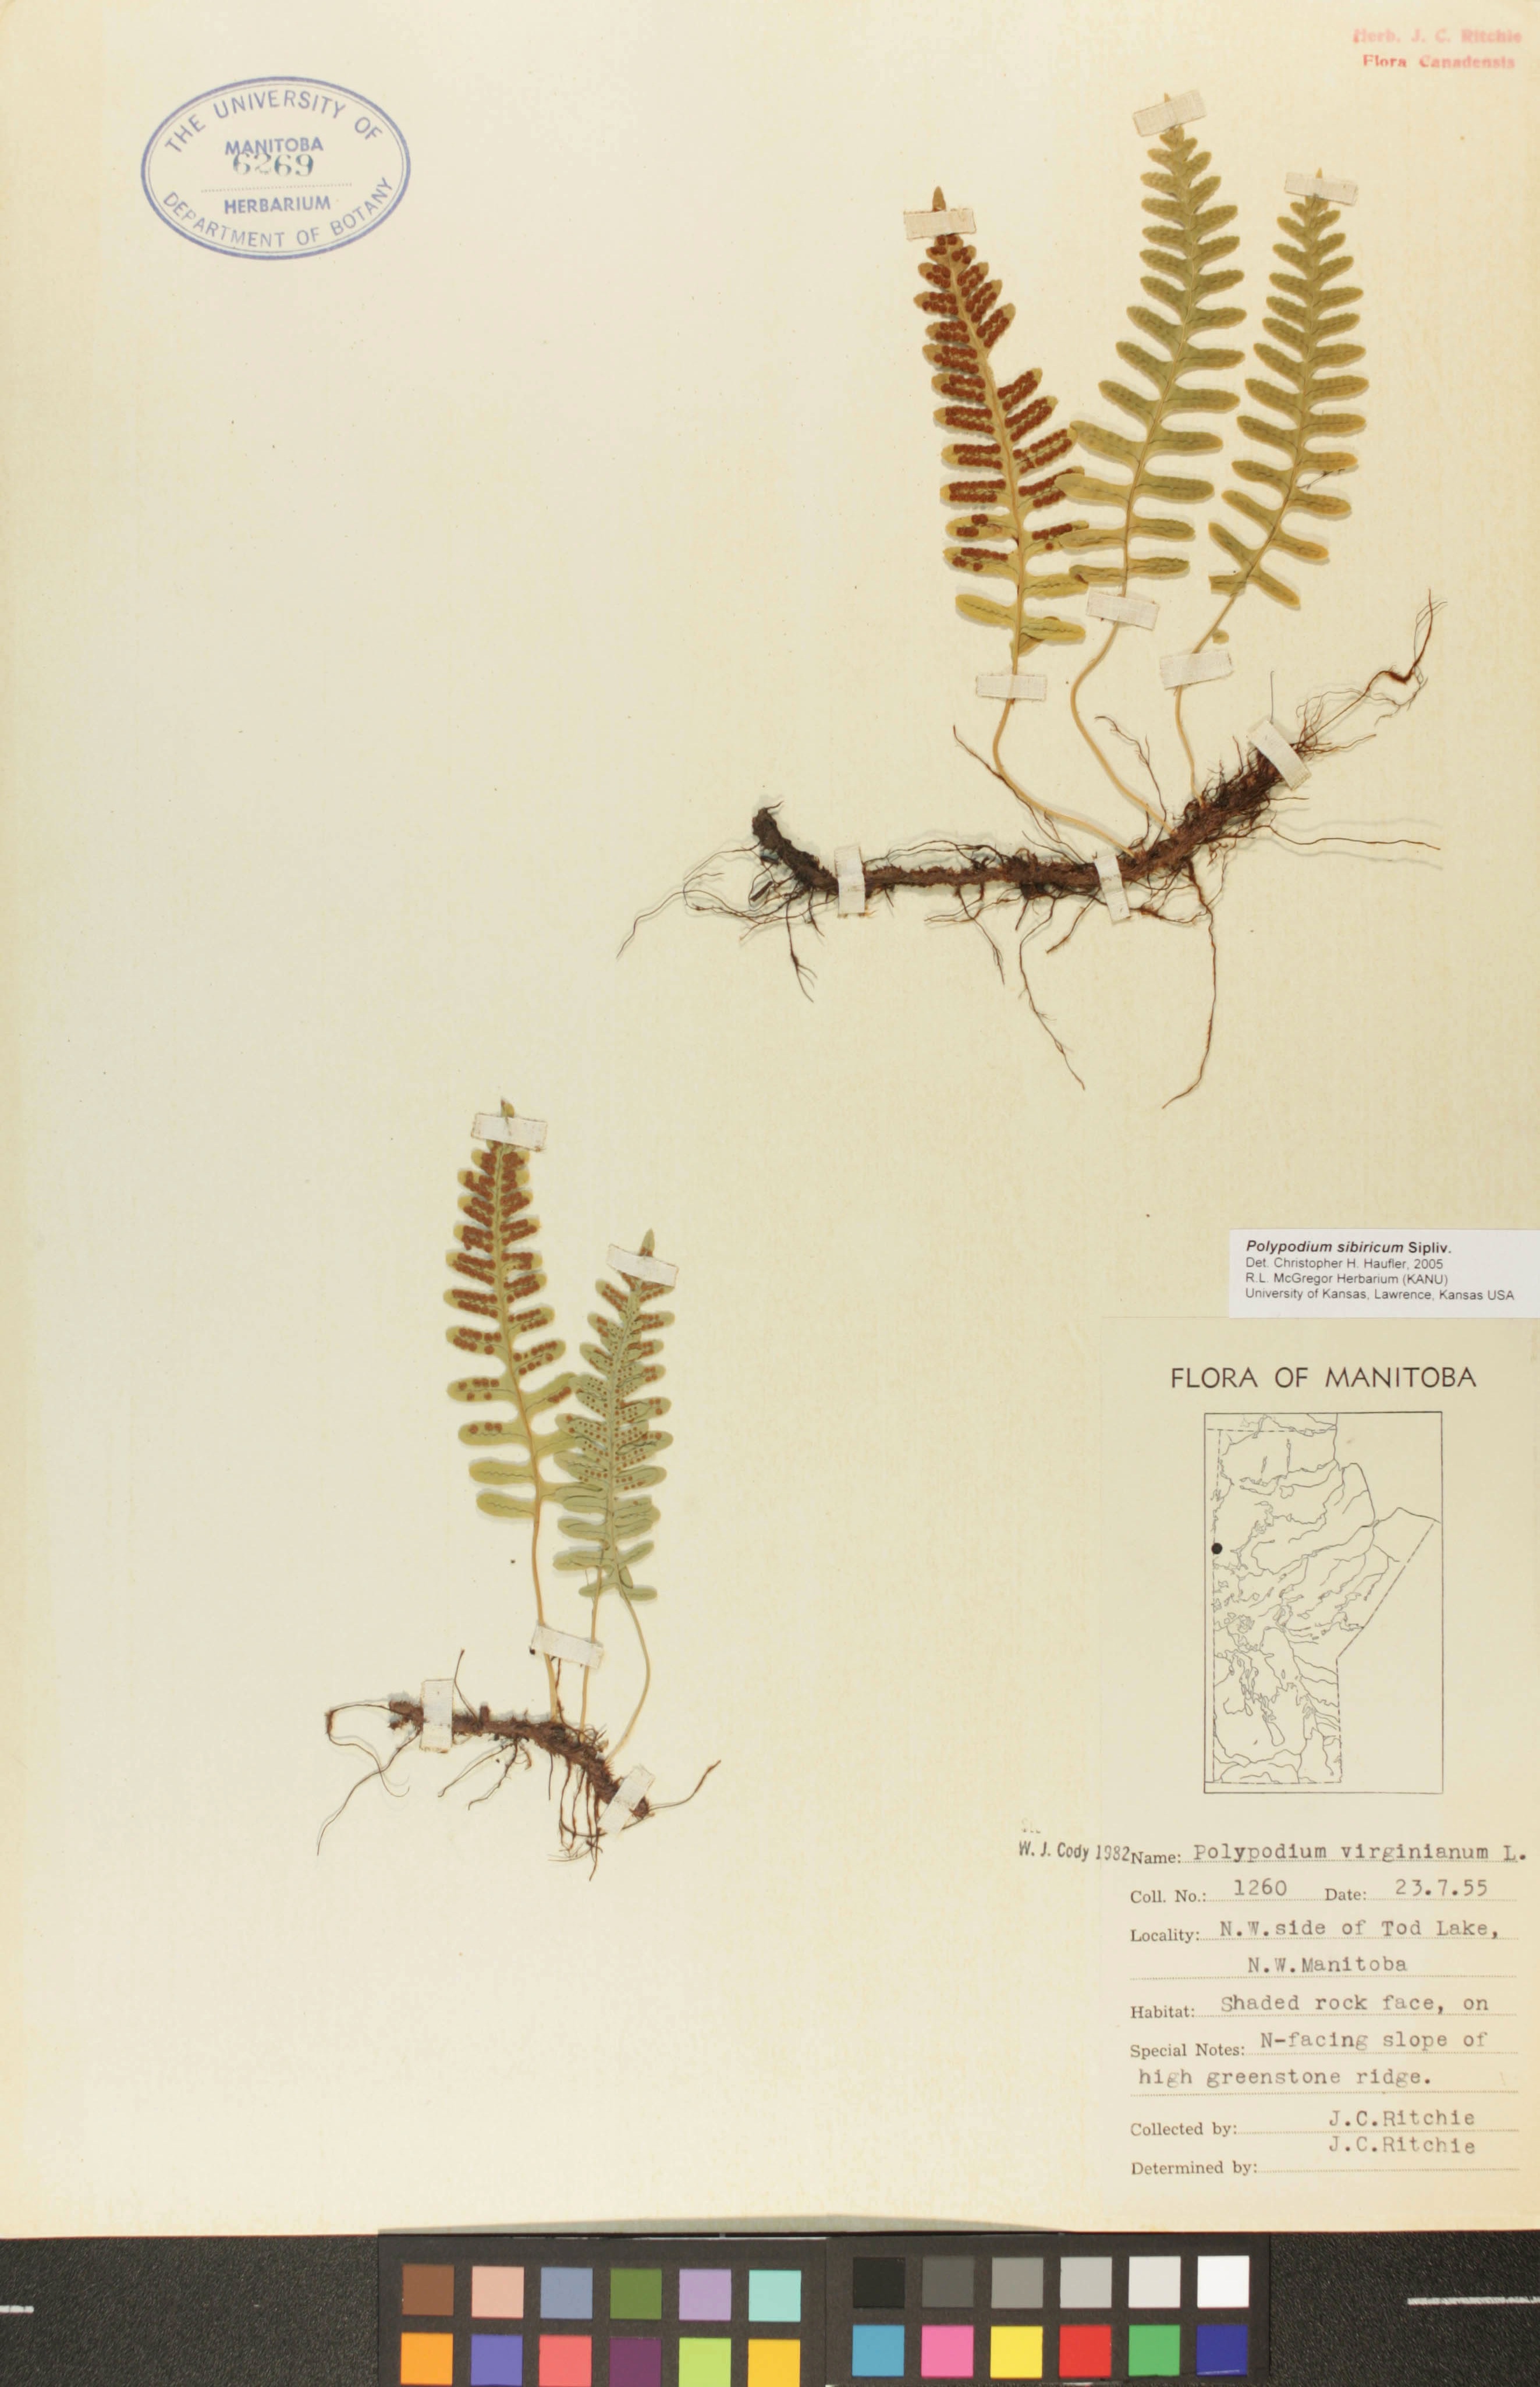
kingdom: Plantae
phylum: Tracheophyta
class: Polypodiopsida
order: Polypodiales
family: Polypodiaceae
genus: Polypodium
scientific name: Polypodium sibiricum
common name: Siberian polypody
